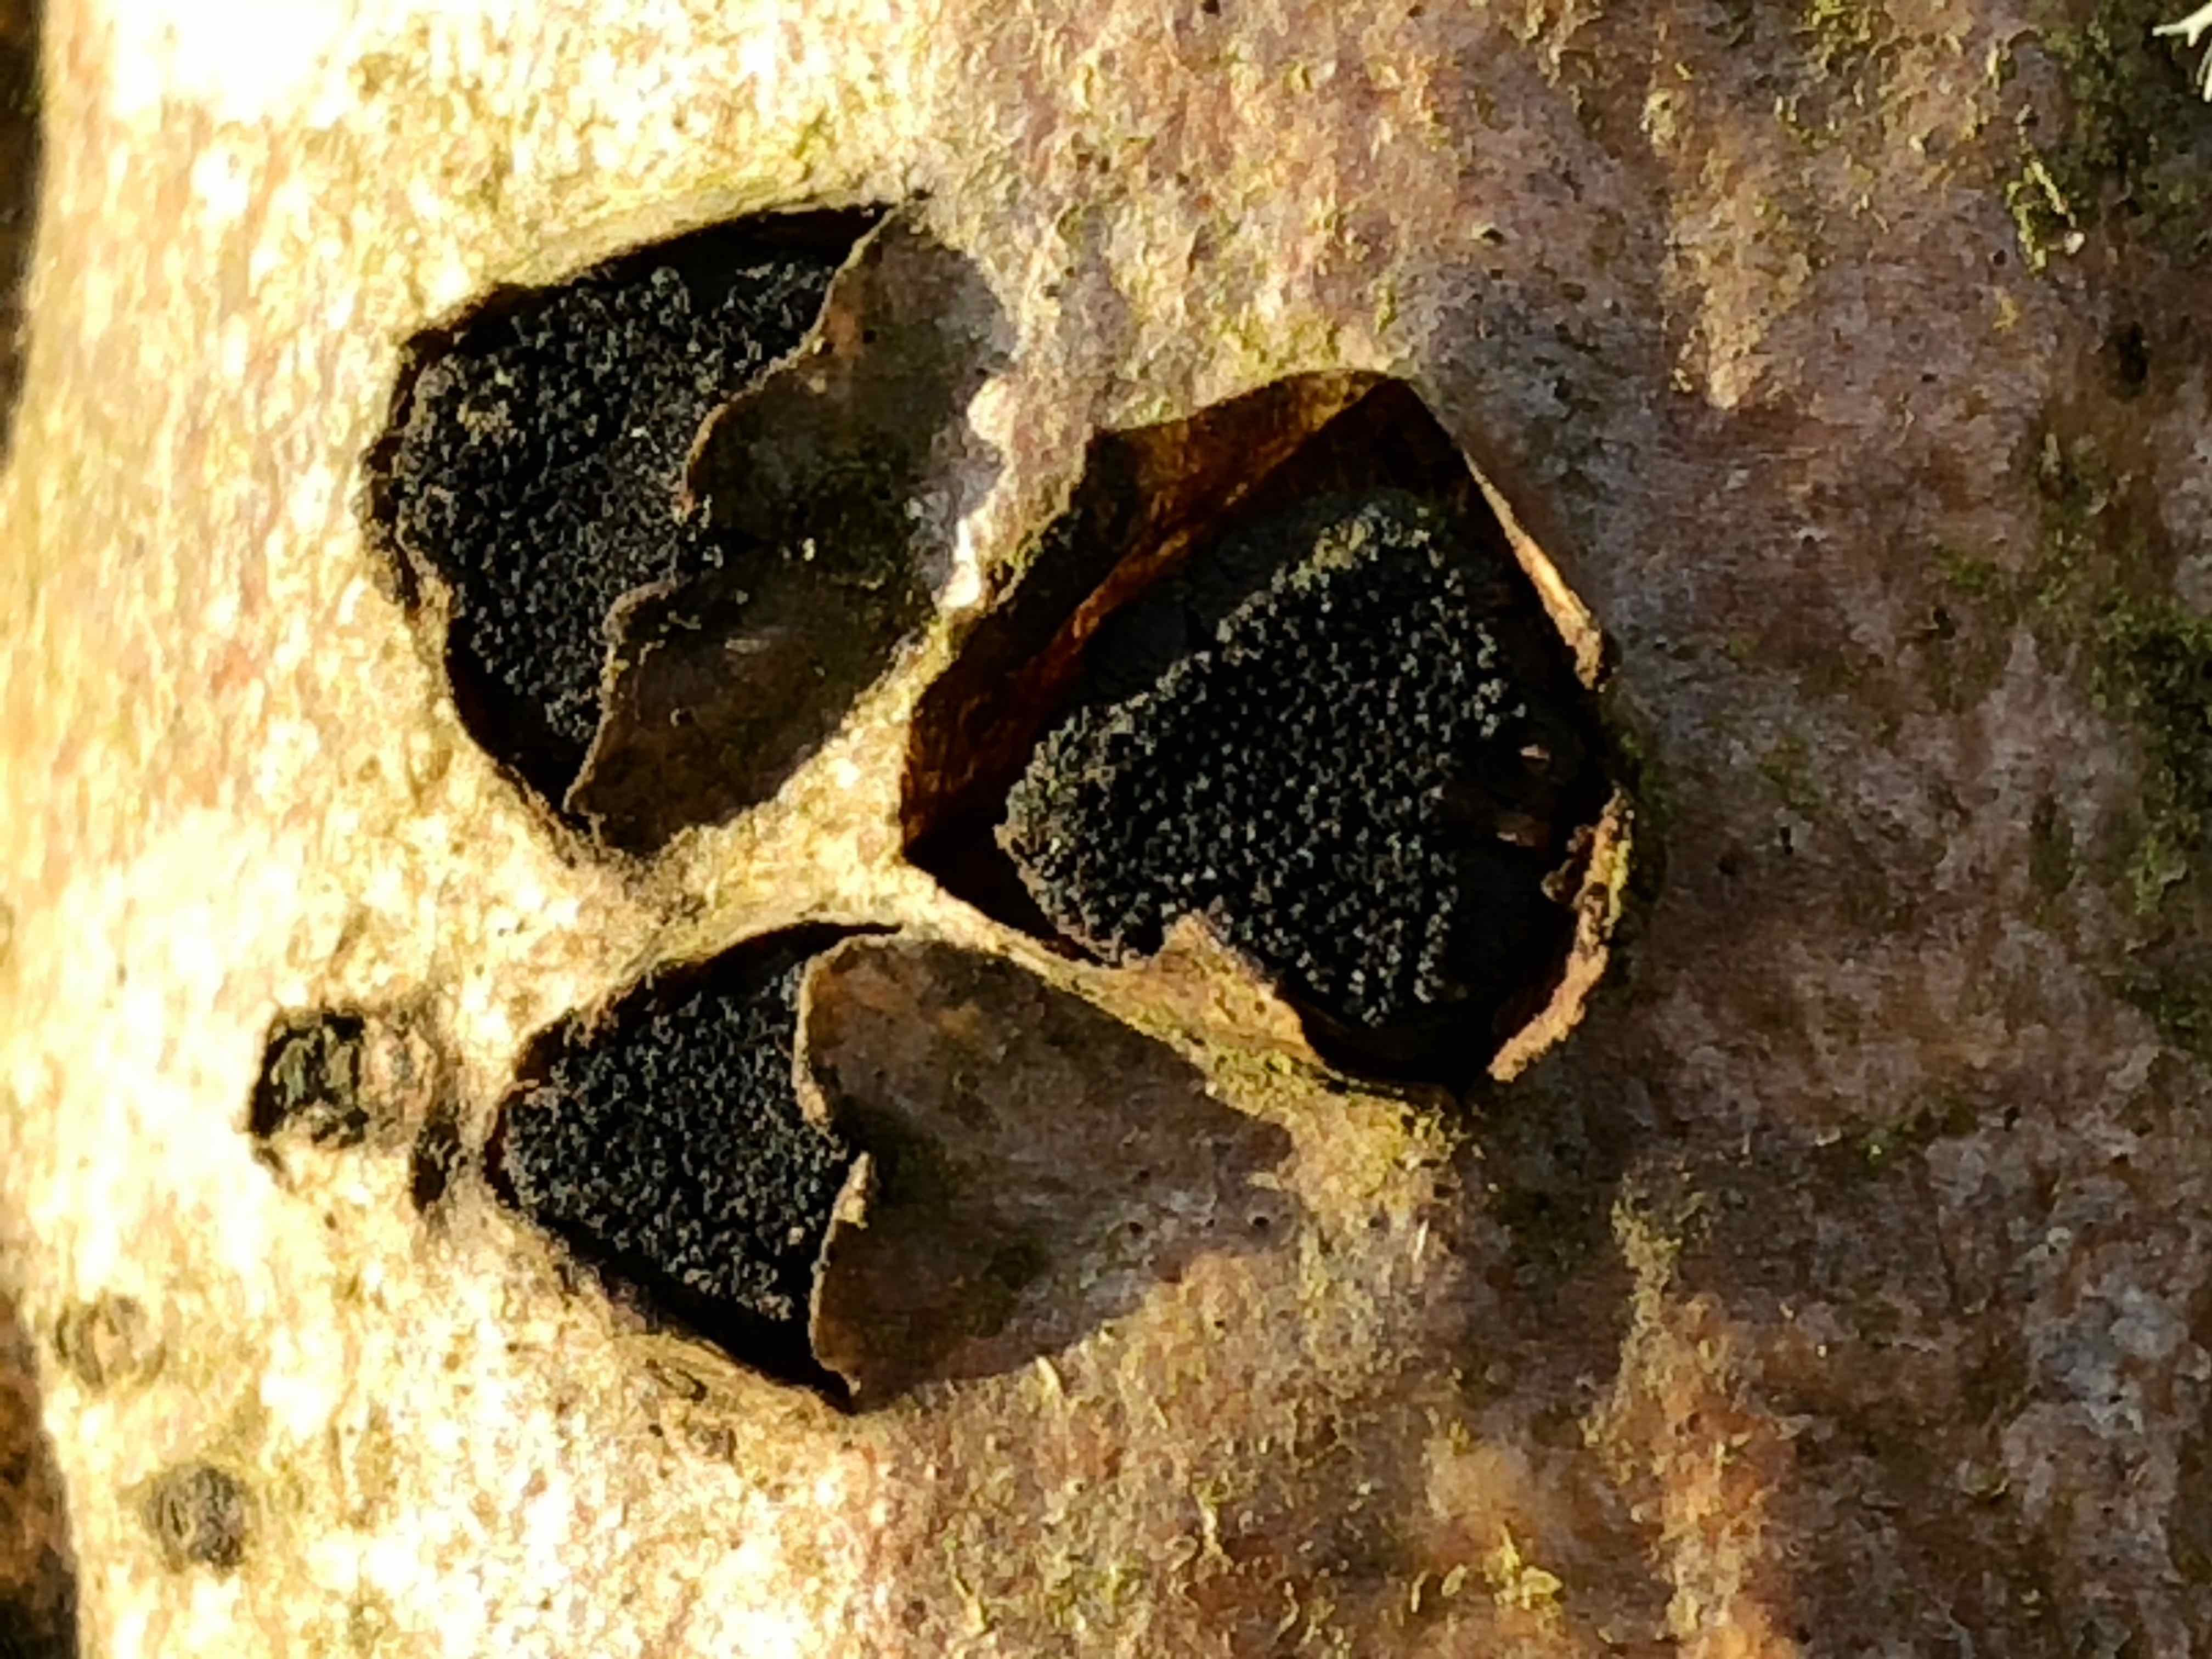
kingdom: Fungi
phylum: Ascomycota
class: Sordariomycetes
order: Xylariales
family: Diatrypaceae
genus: Eutypella
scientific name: Eutypella sorbi
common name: rønne-kulskorpe
